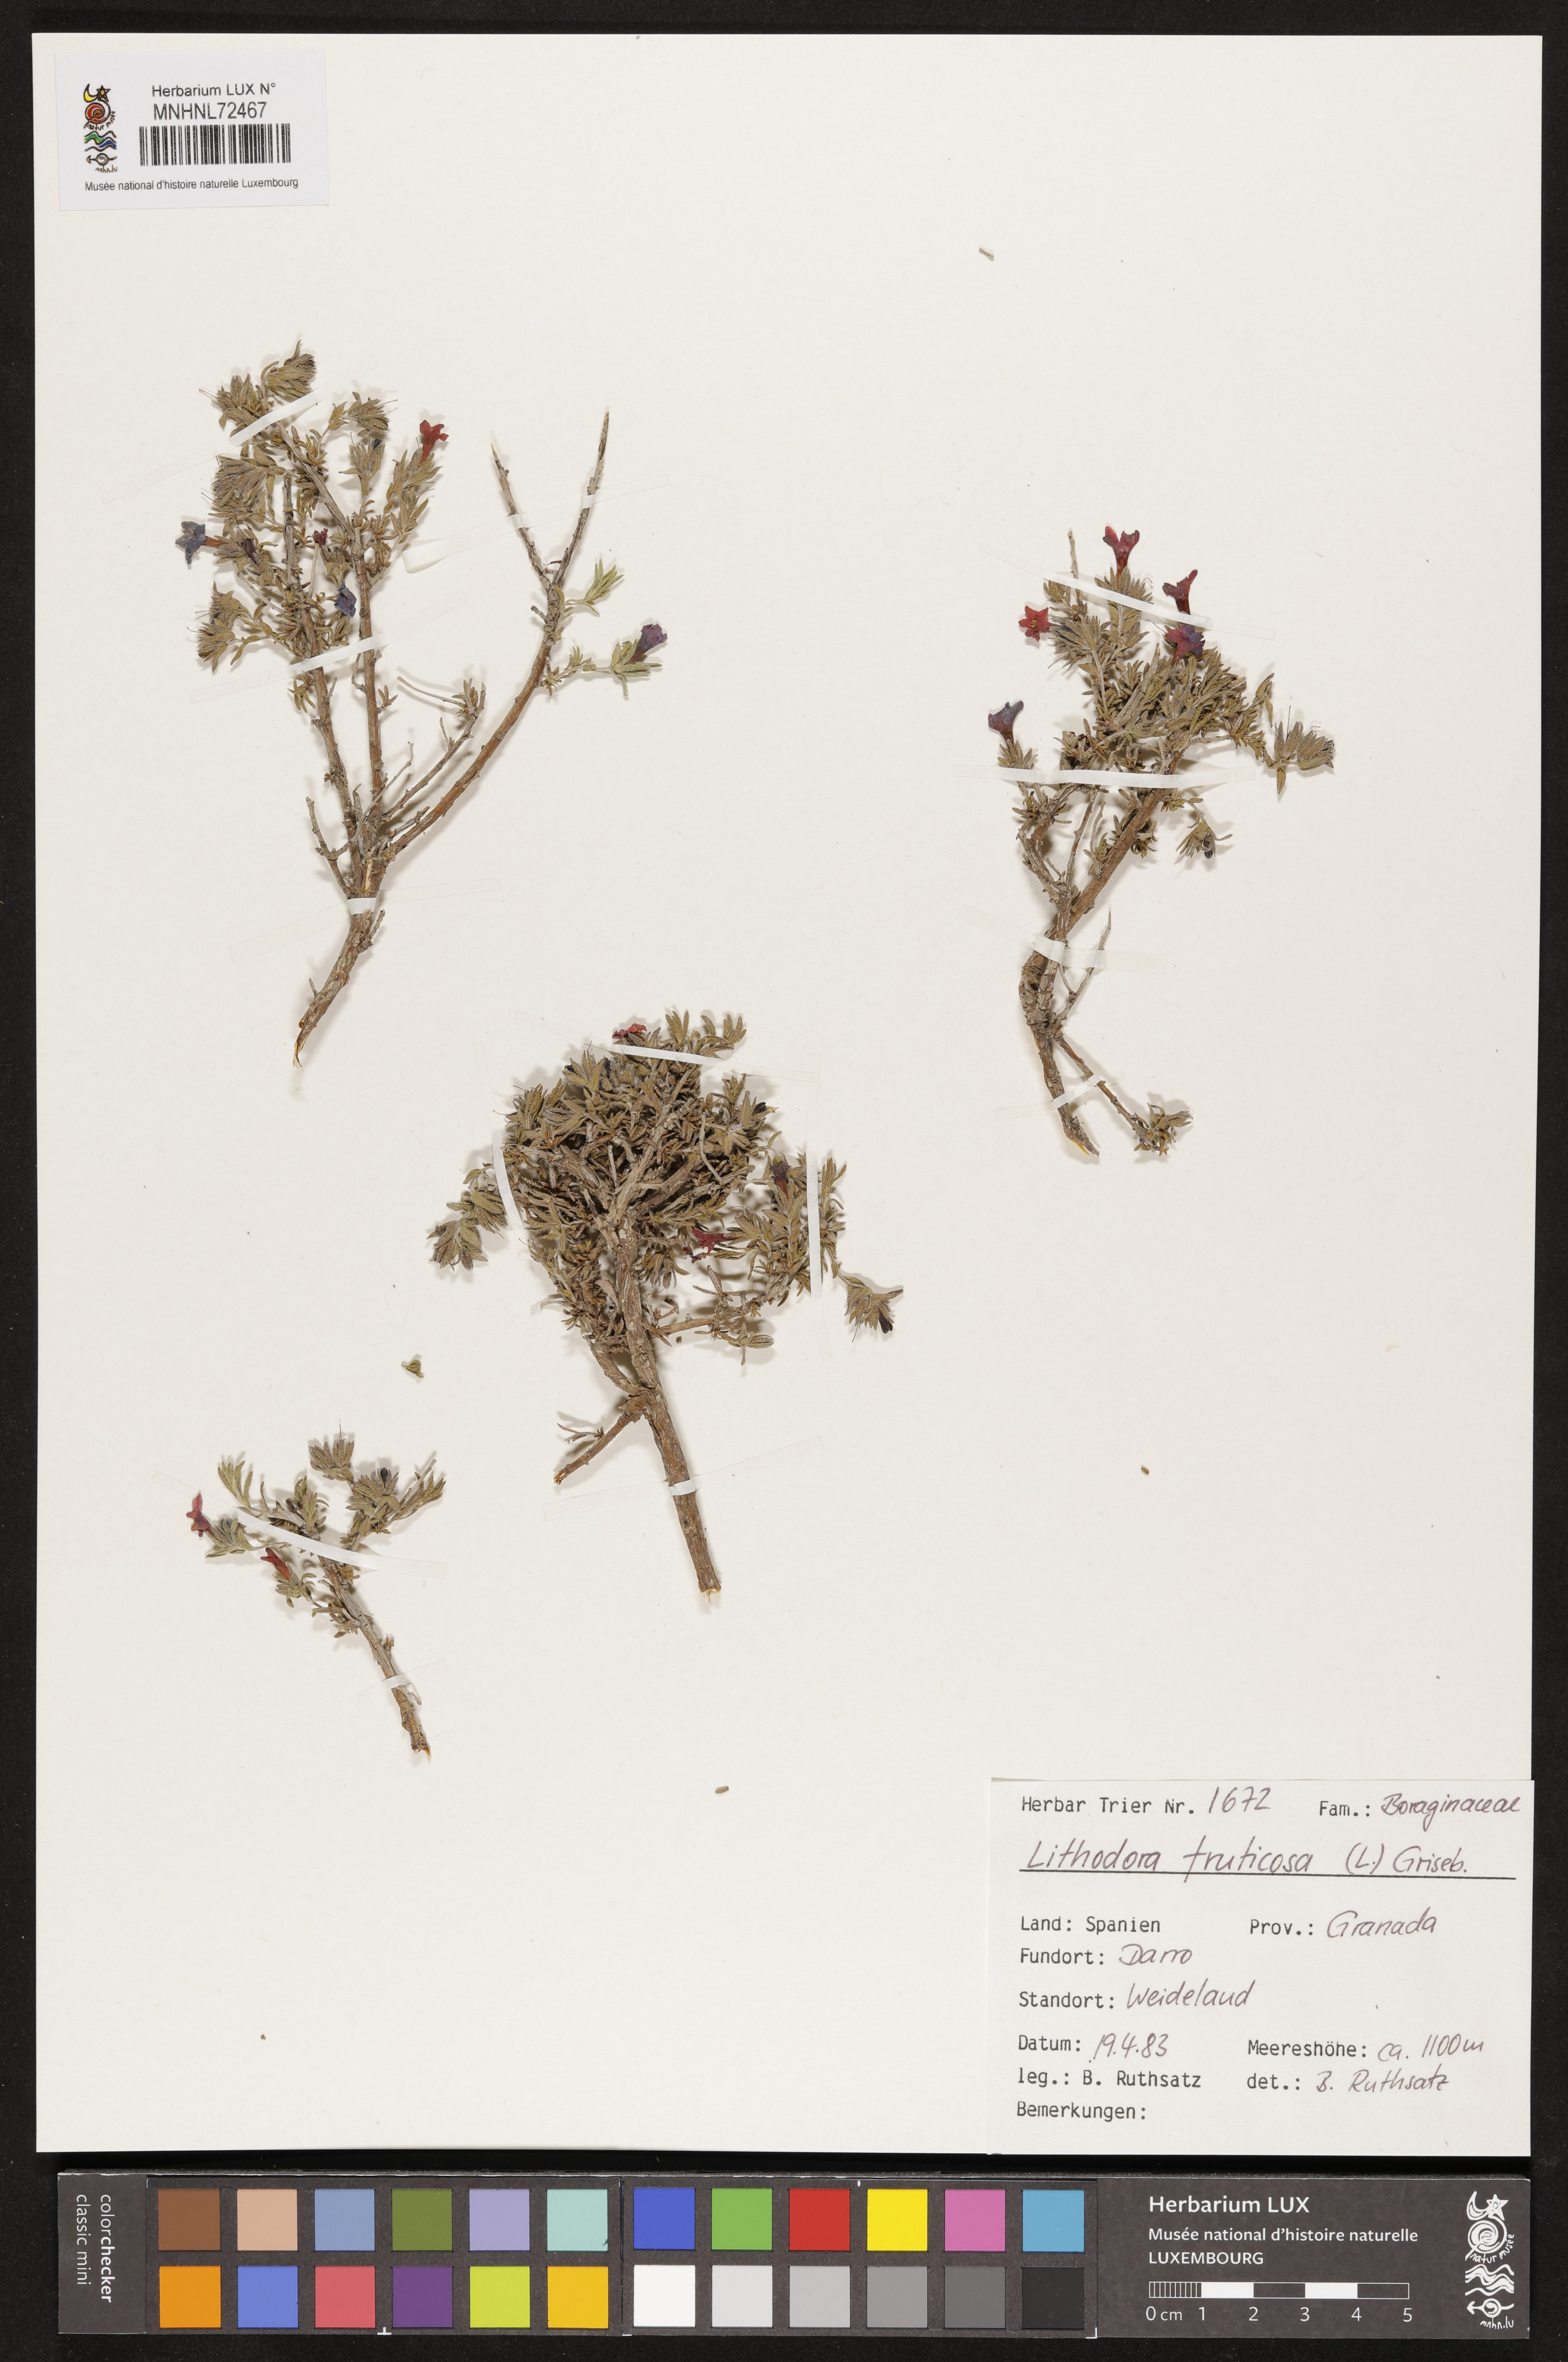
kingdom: Plantae
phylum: Tracheophyta
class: Magnoliopsida
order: Boraginales
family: Boraginaceae
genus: Lithodora
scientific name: Lithodora fruticosa
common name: Shrubby gromwell
